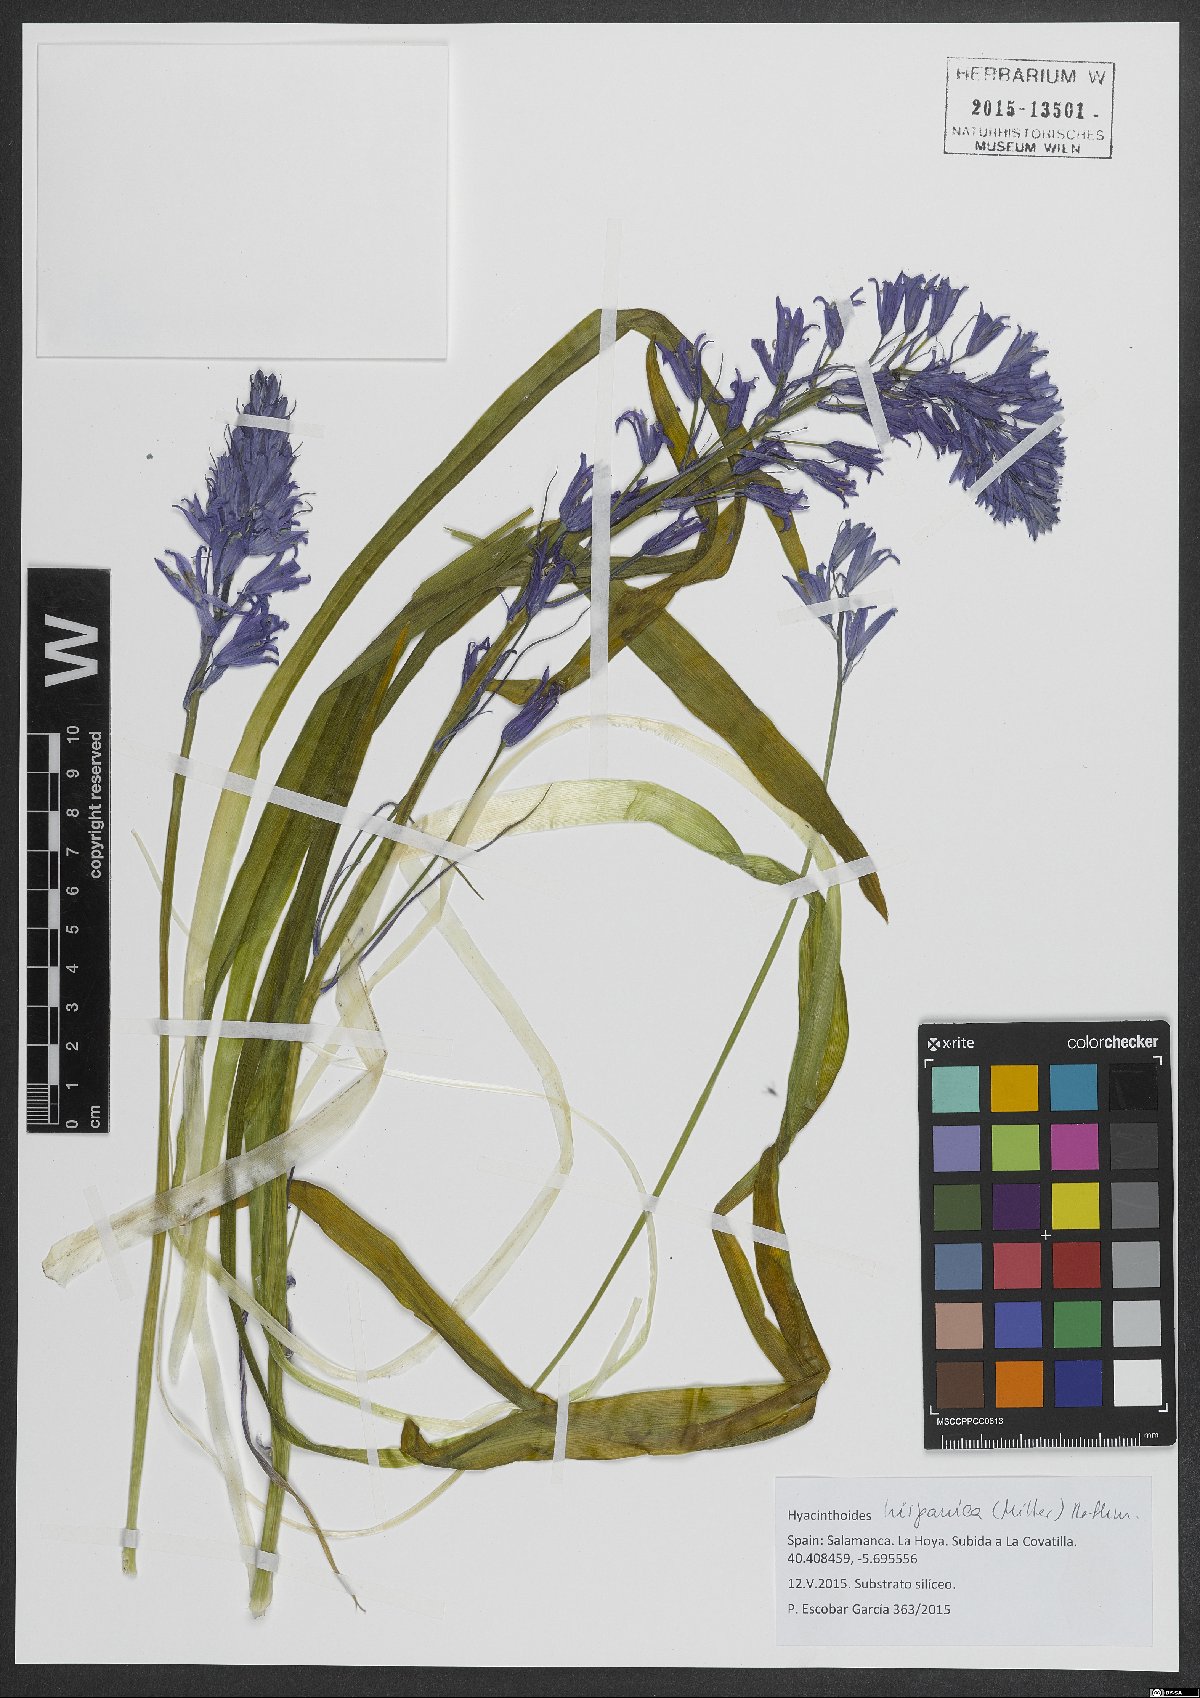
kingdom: Plantae
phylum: Tracheophyta
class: Liliopsida
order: Asparagales
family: Asparagaceae
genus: Hyacinthoides
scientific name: Hyacinthoides hispanica
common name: Spanish bluebell
